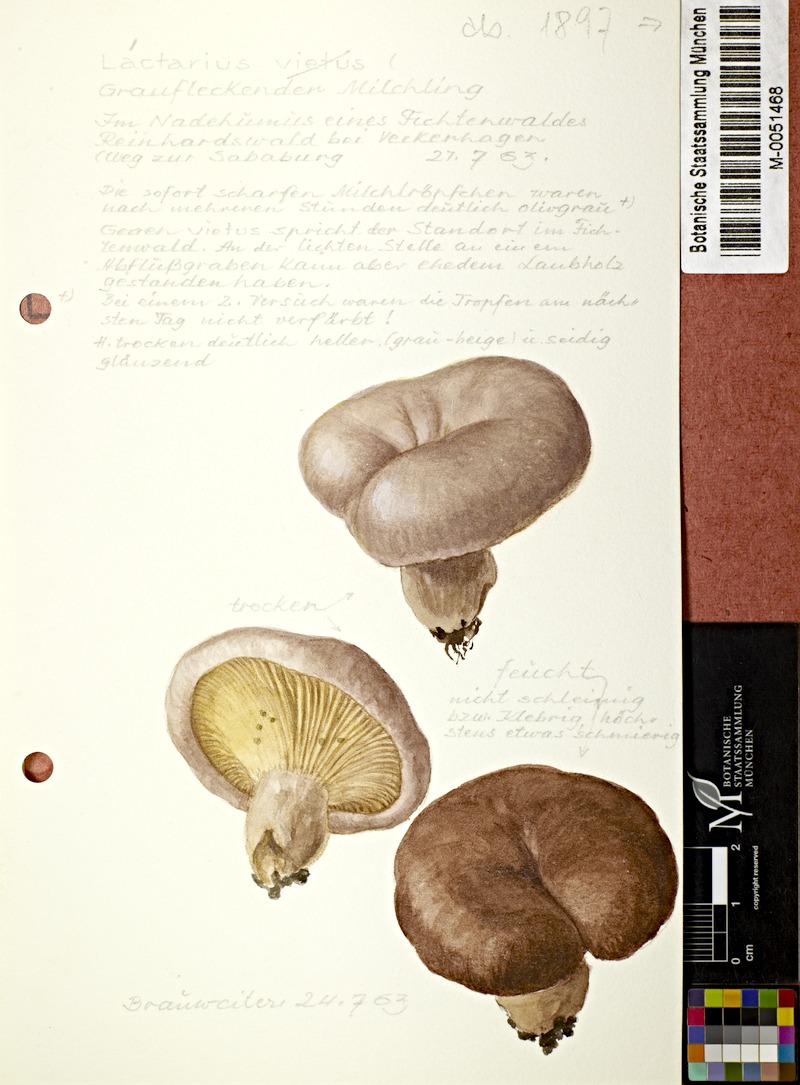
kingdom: Fungi
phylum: Basidiomycota
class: Agaricomycetes
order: Russulales
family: Russulaceae
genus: Lactarius
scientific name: Lactarius vietus
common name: Grey milk-cap
